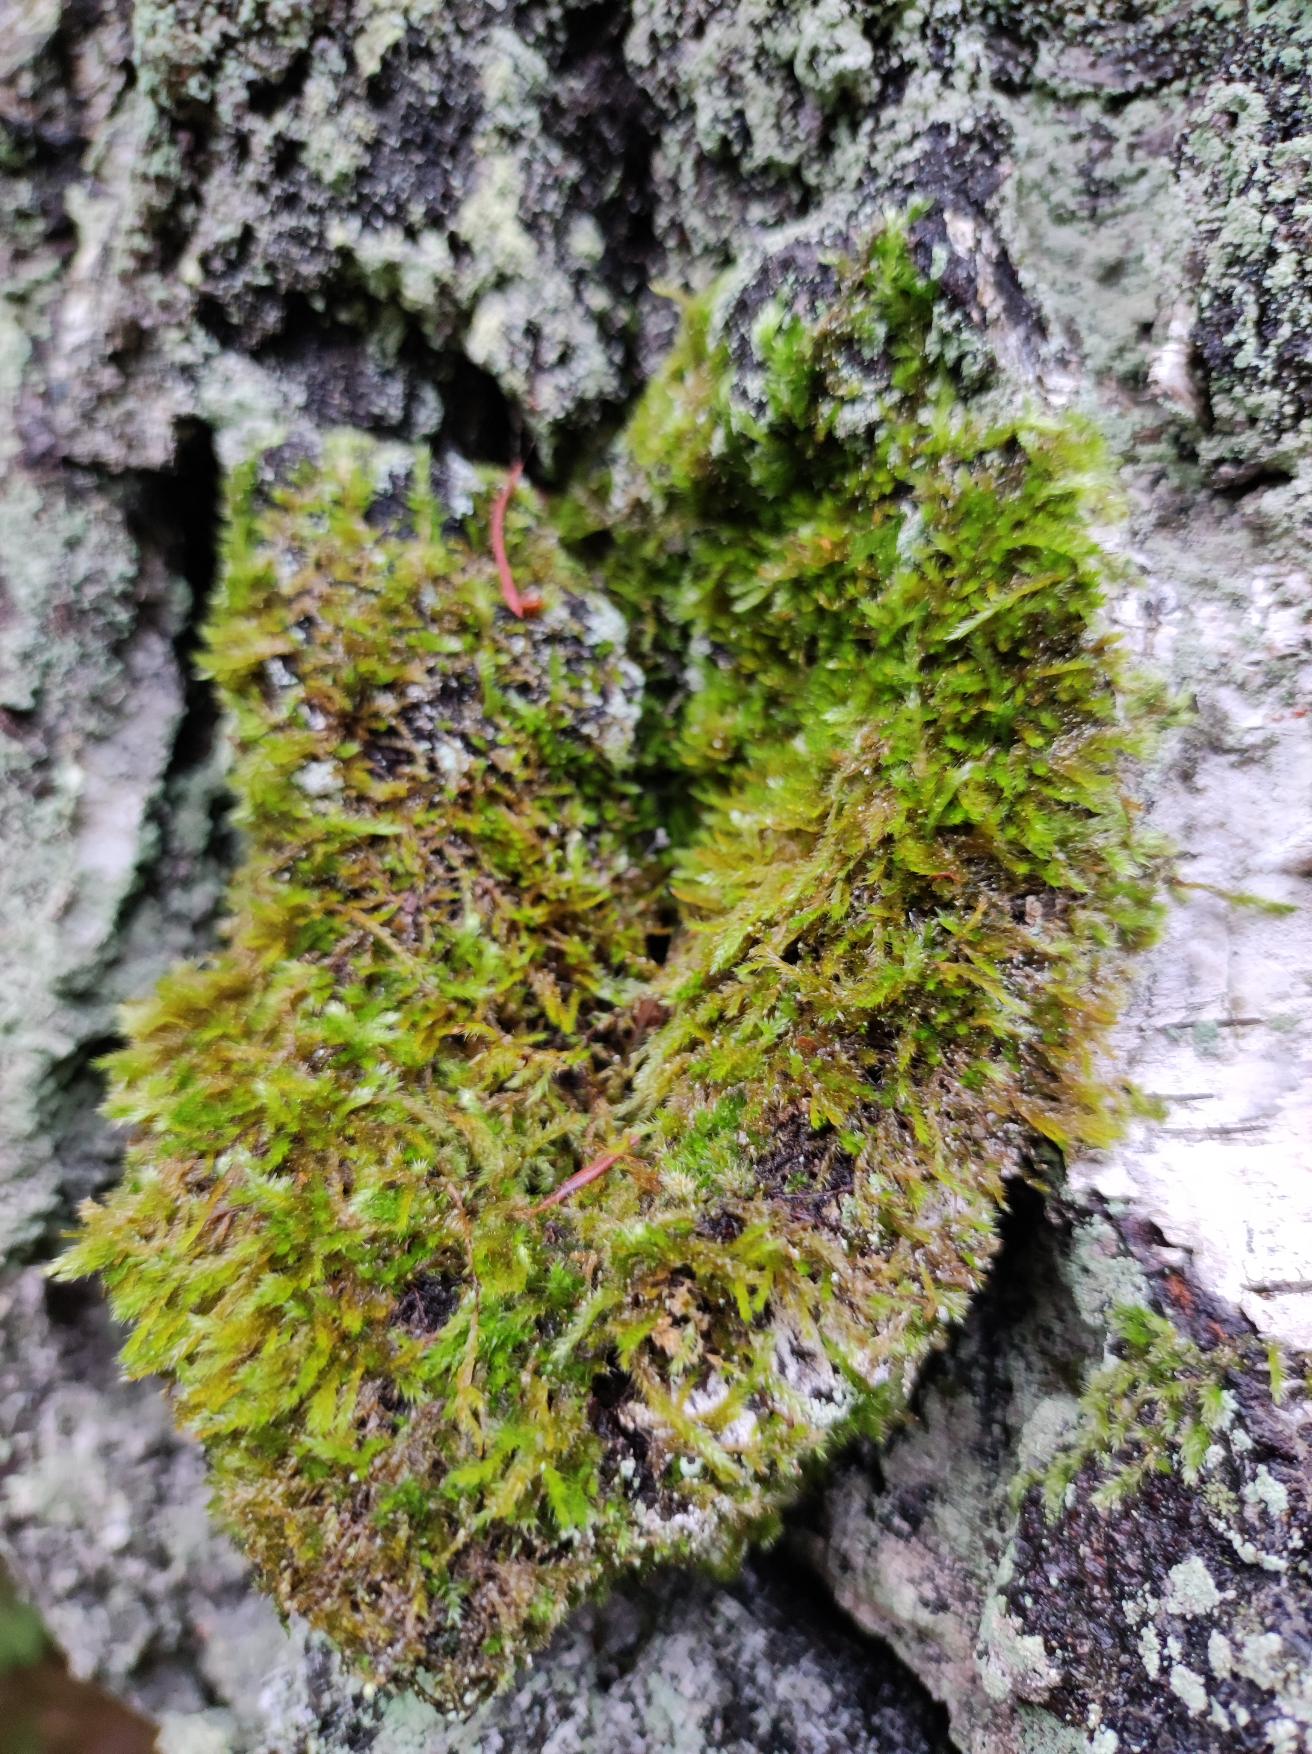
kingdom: Plantae
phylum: Bryophyta
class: Bryopsida
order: Hypnales
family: Hypnaceae
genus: Hypnum
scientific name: Hypnum cupressiforme
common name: Almindelig cypresmos
